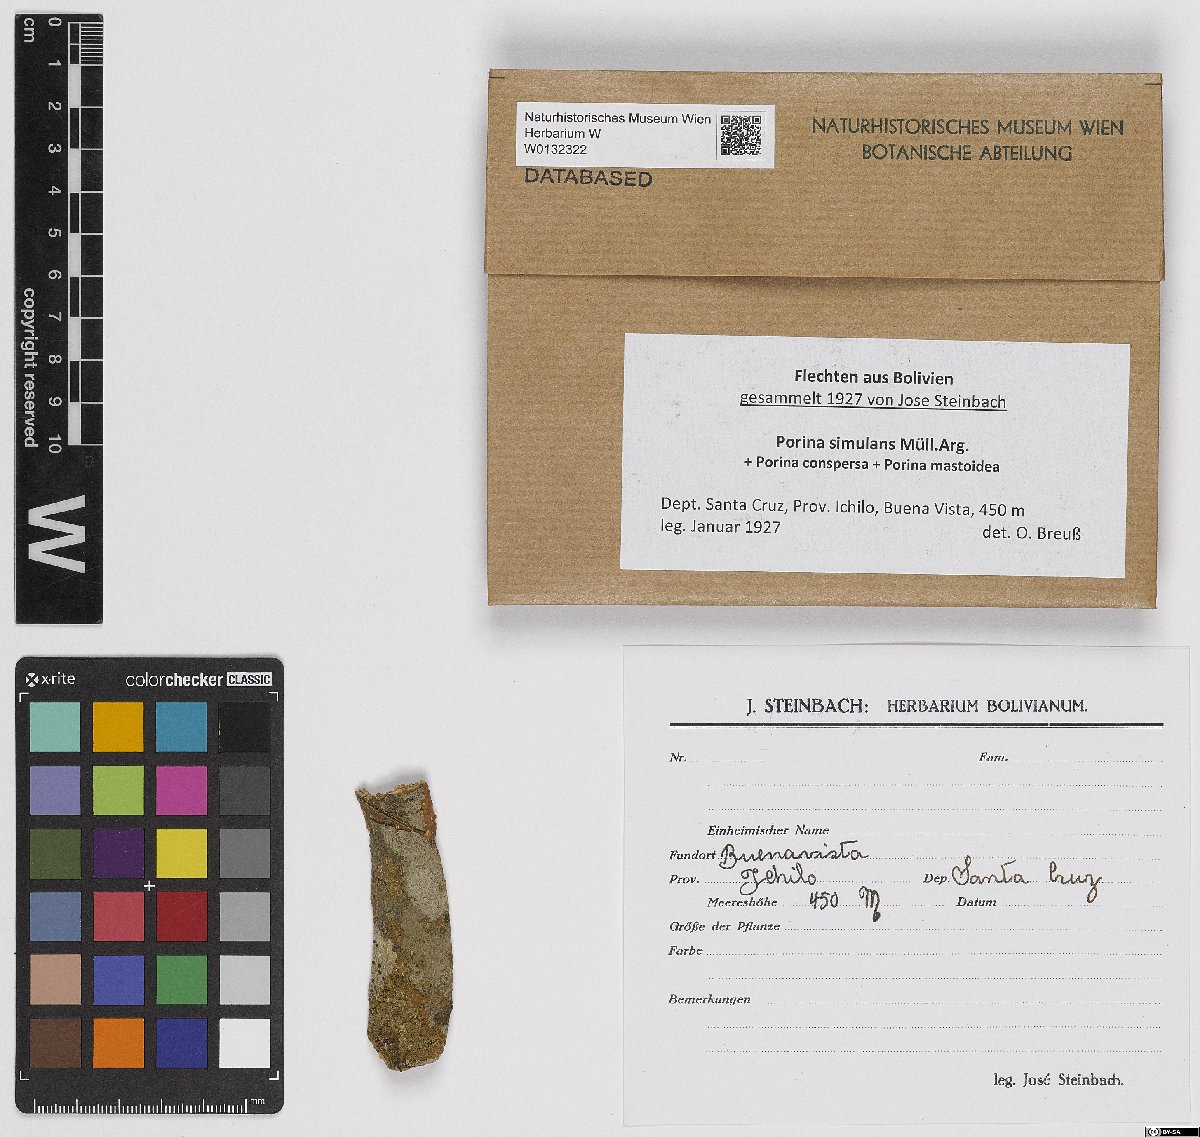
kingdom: Fungi
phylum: Ascomycota
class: Lecanoromycetes
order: Pertusariales
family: Pertusariaceae
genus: Porina
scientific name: Porina simulans
